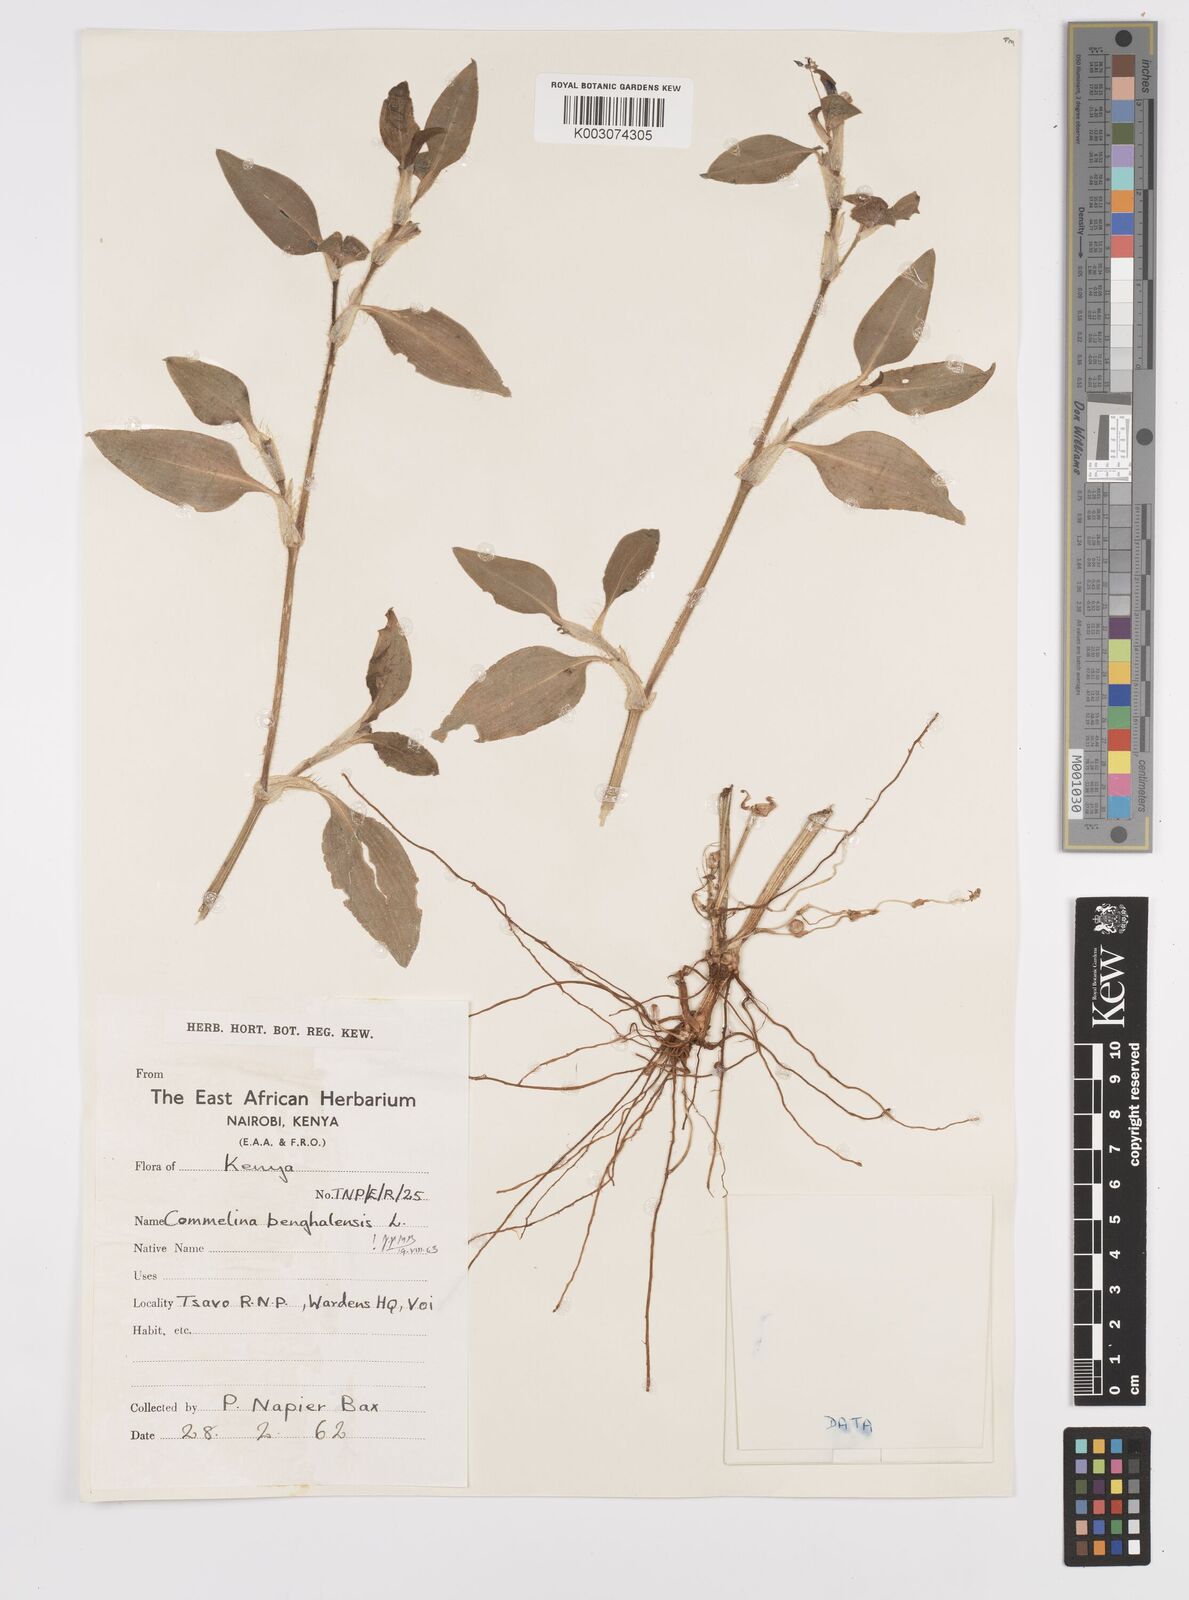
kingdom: Plantae
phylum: Tracheophyta
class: Liliopsida
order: Commelinales
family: Commelinaceae
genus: Commelina
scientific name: Commelina benghalensis
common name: Jio
